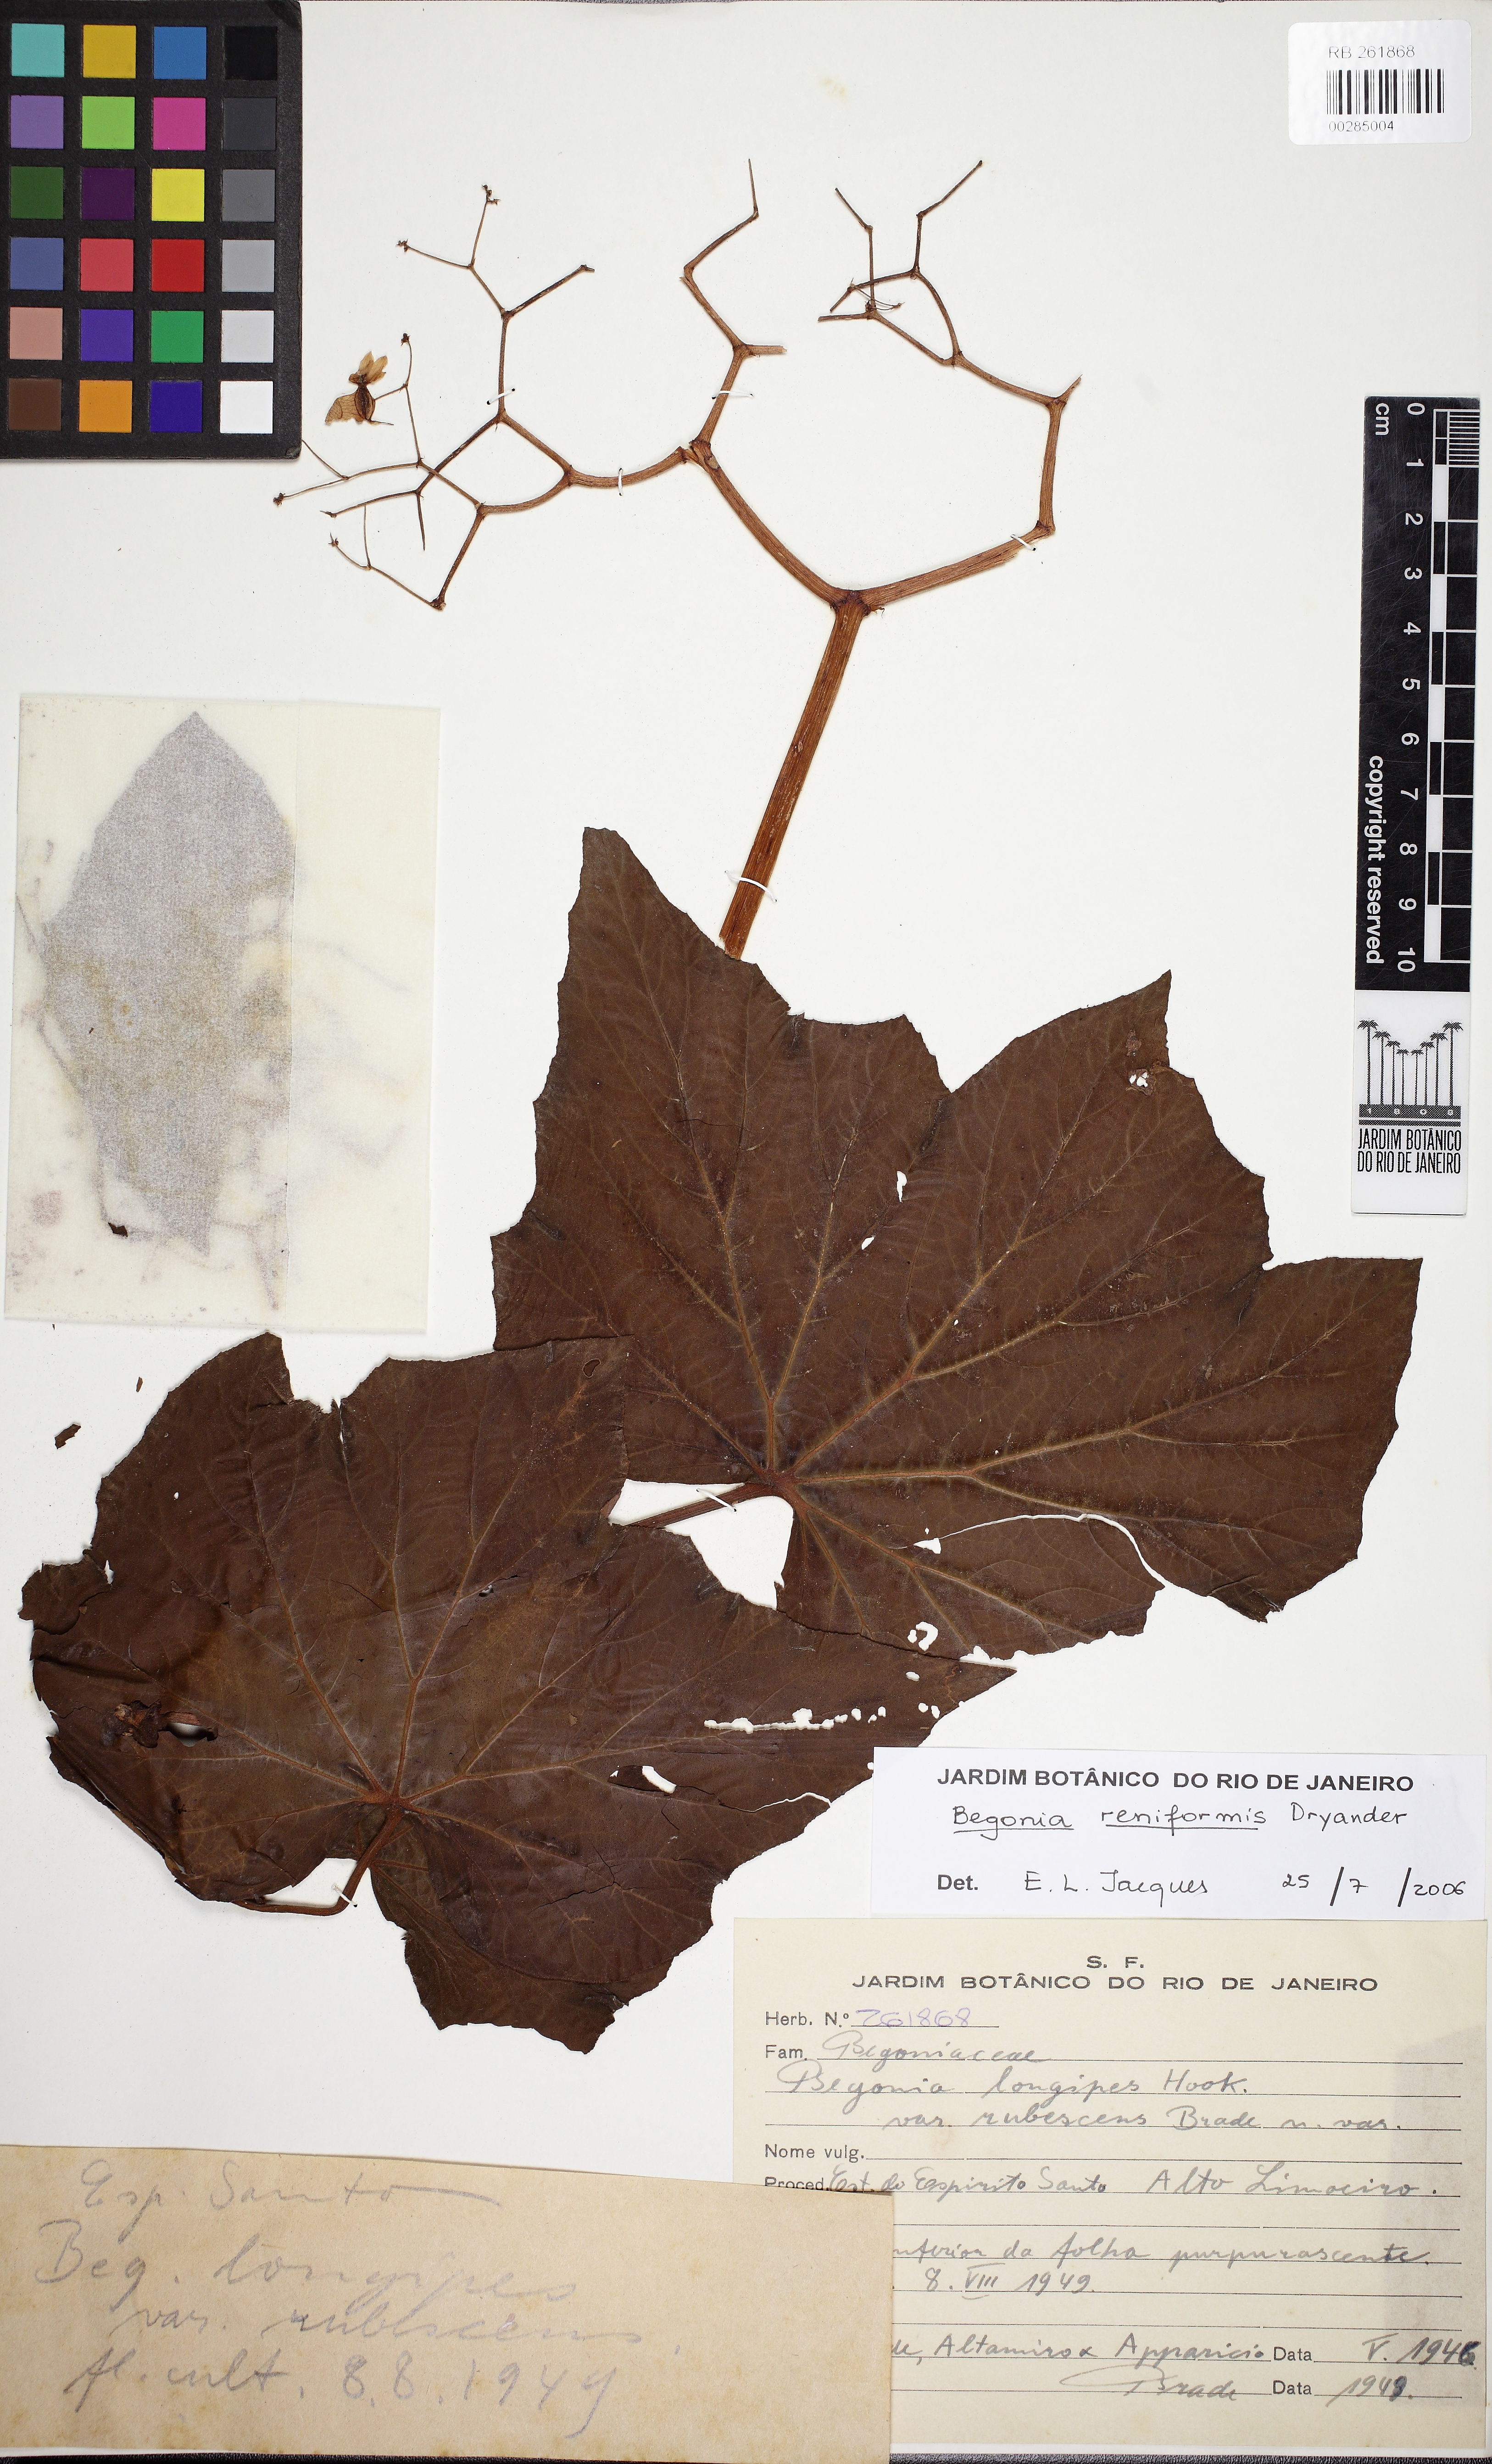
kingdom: Plantae
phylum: Tracheophyta
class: Magnoliopsida
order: Cucurbitales
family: Begoniaceae
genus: Begonia
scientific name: Begonia reniformis
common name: Grapeleaf begonia
